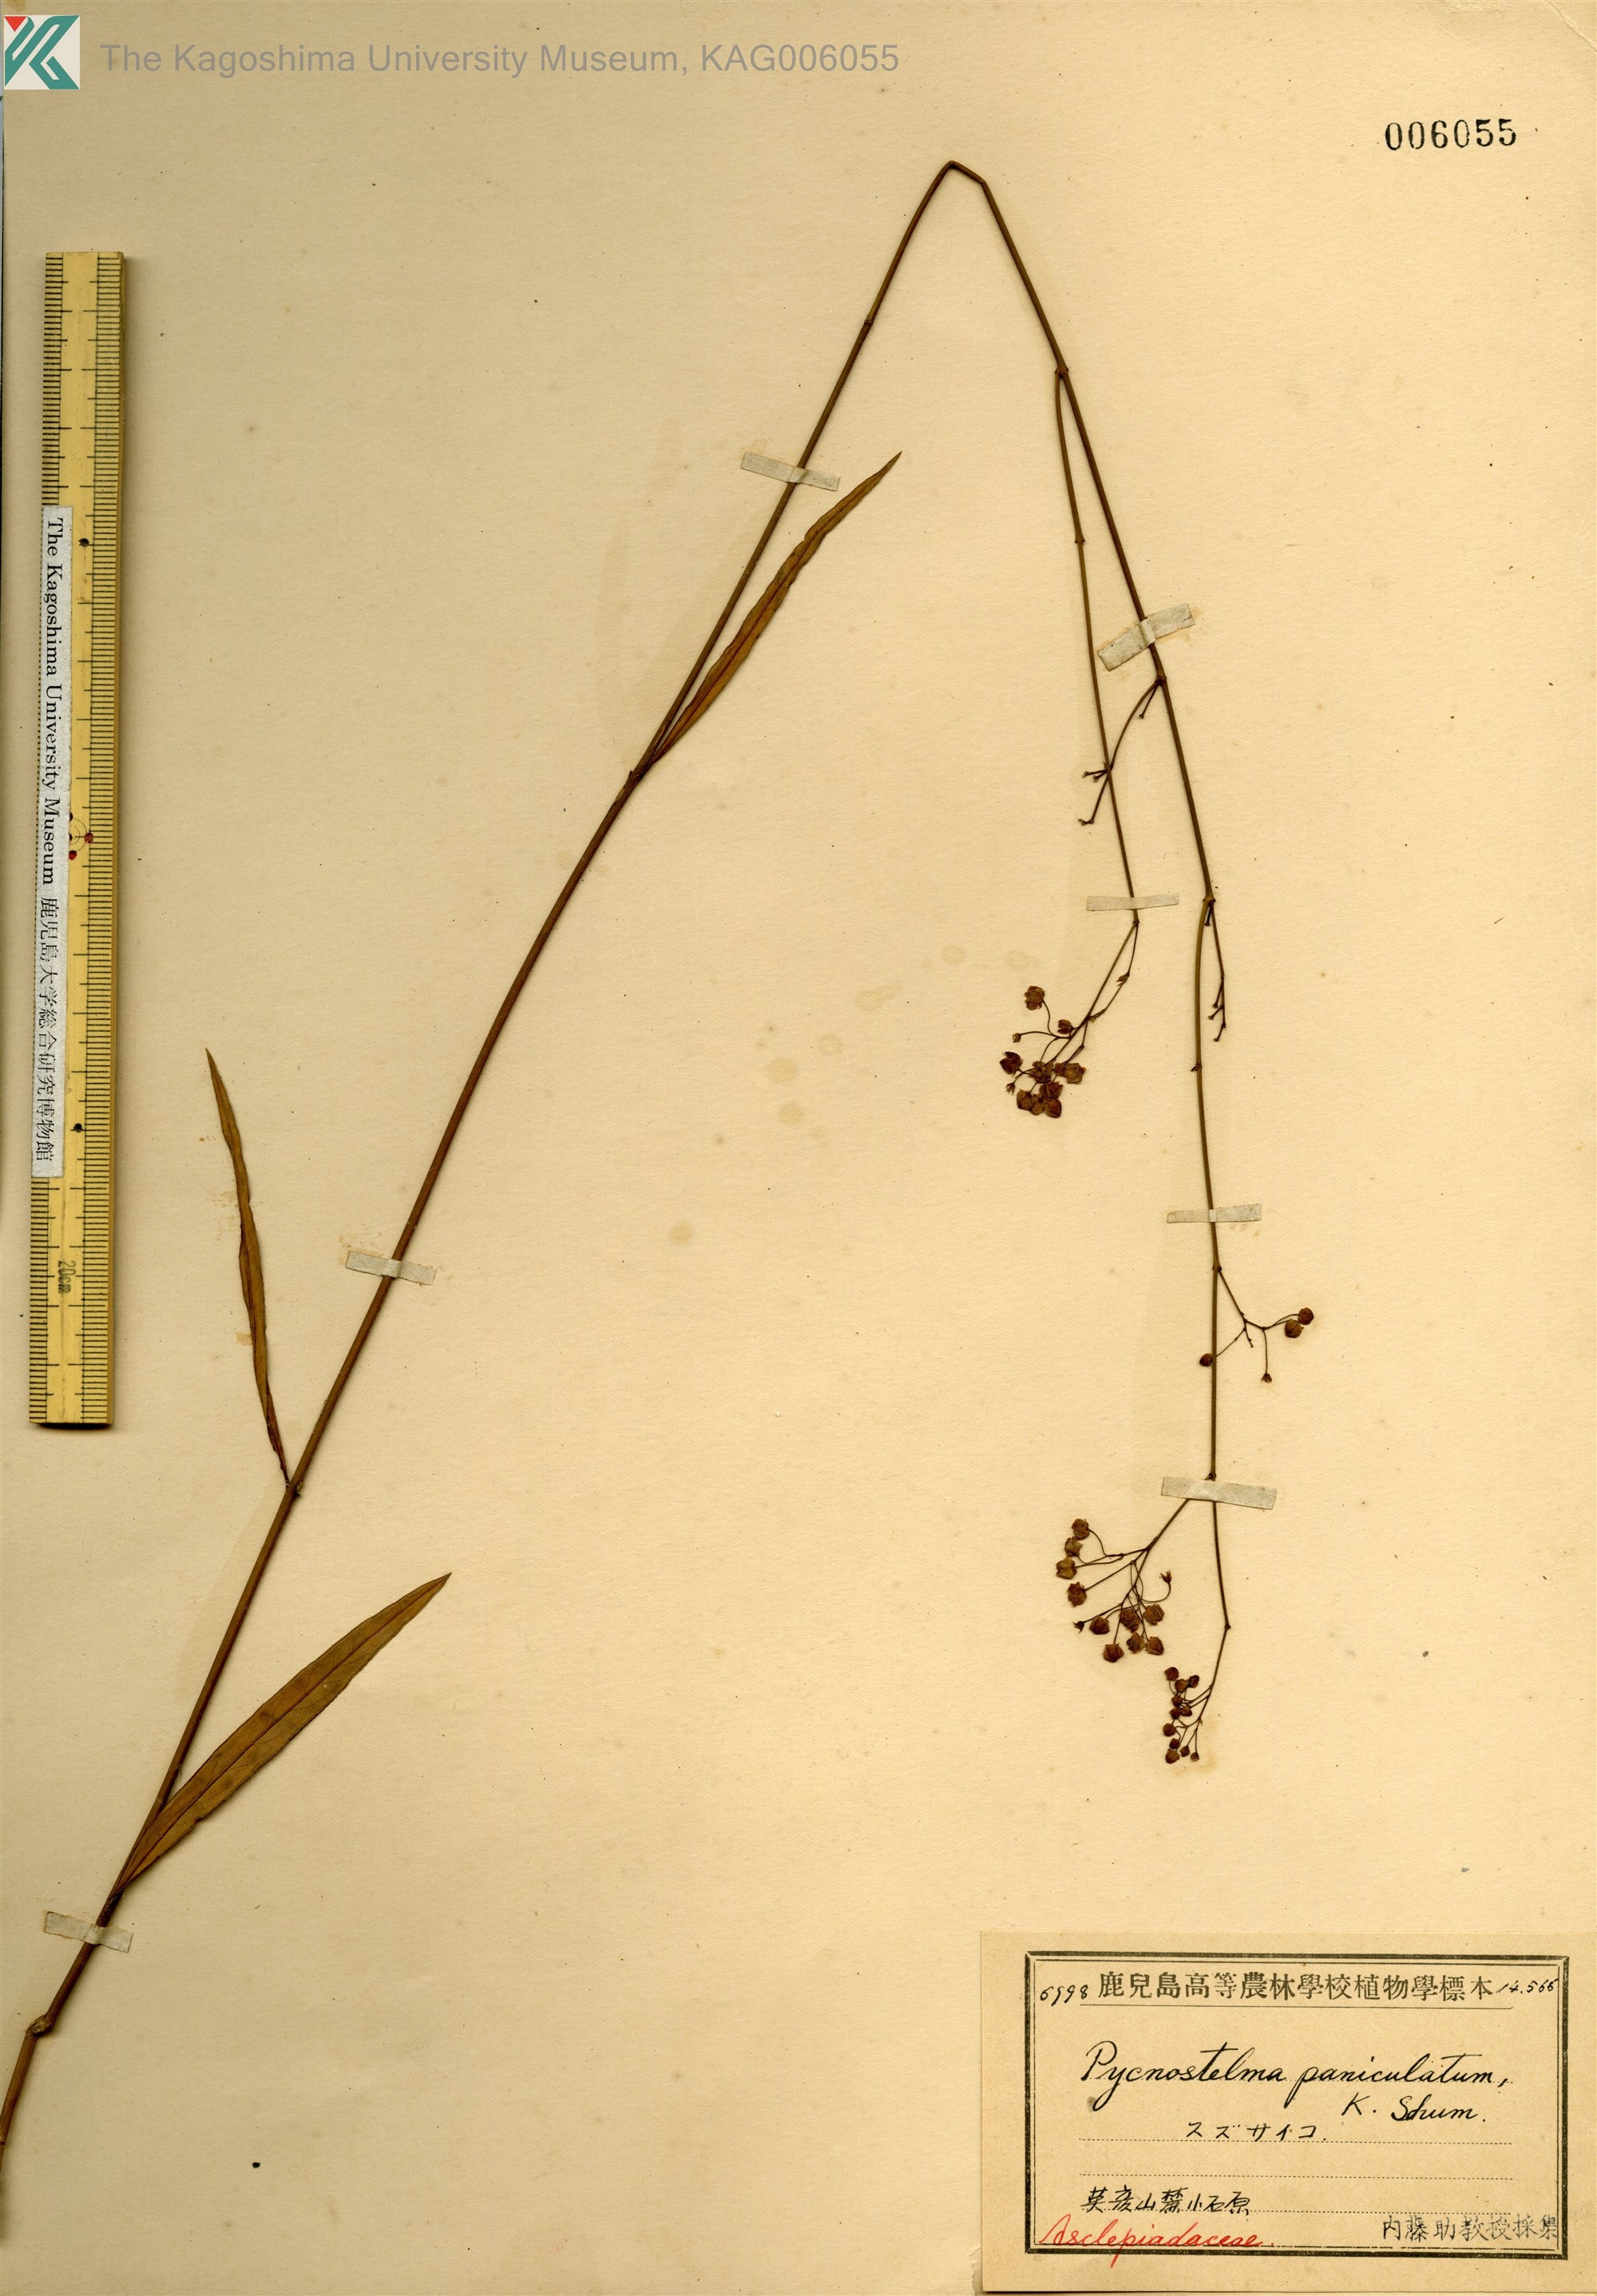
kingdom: Plantae
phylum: Tracheophyta
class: Magnoliopsida
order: Gentianales
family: Apocynaceae
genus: Vincetoxicum
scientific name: Vincetoxicum mukdenense
